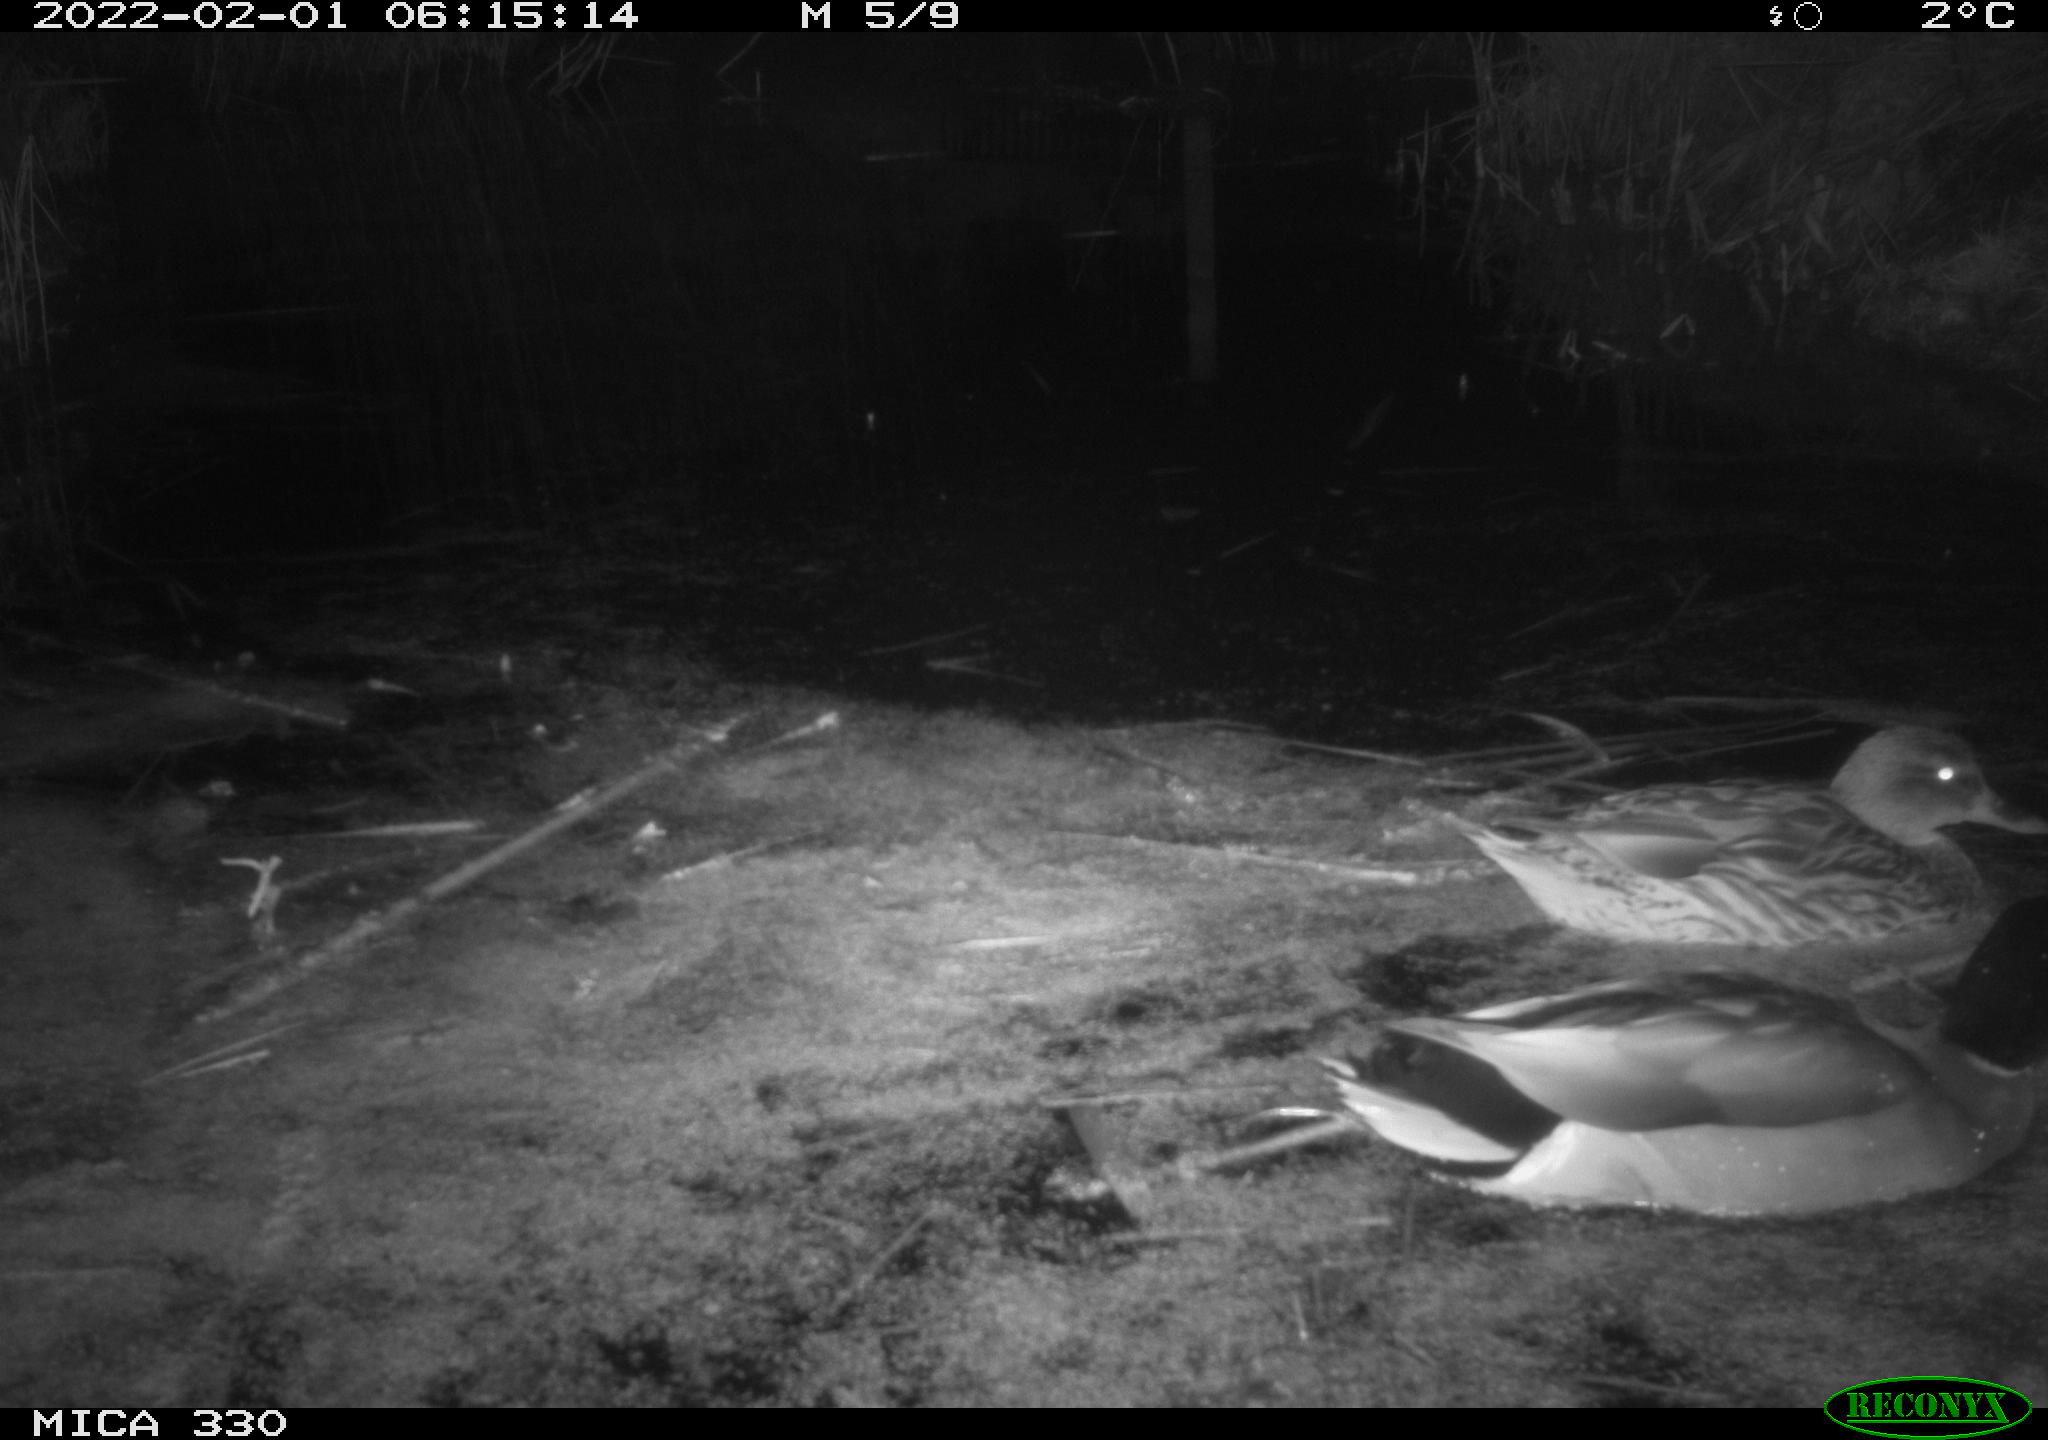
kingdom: Animalia
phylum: Chordata
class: Aves
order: Anseriformes
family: Anatidae
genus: Anas
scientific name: Anas platyrhynchos
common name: Mallard
